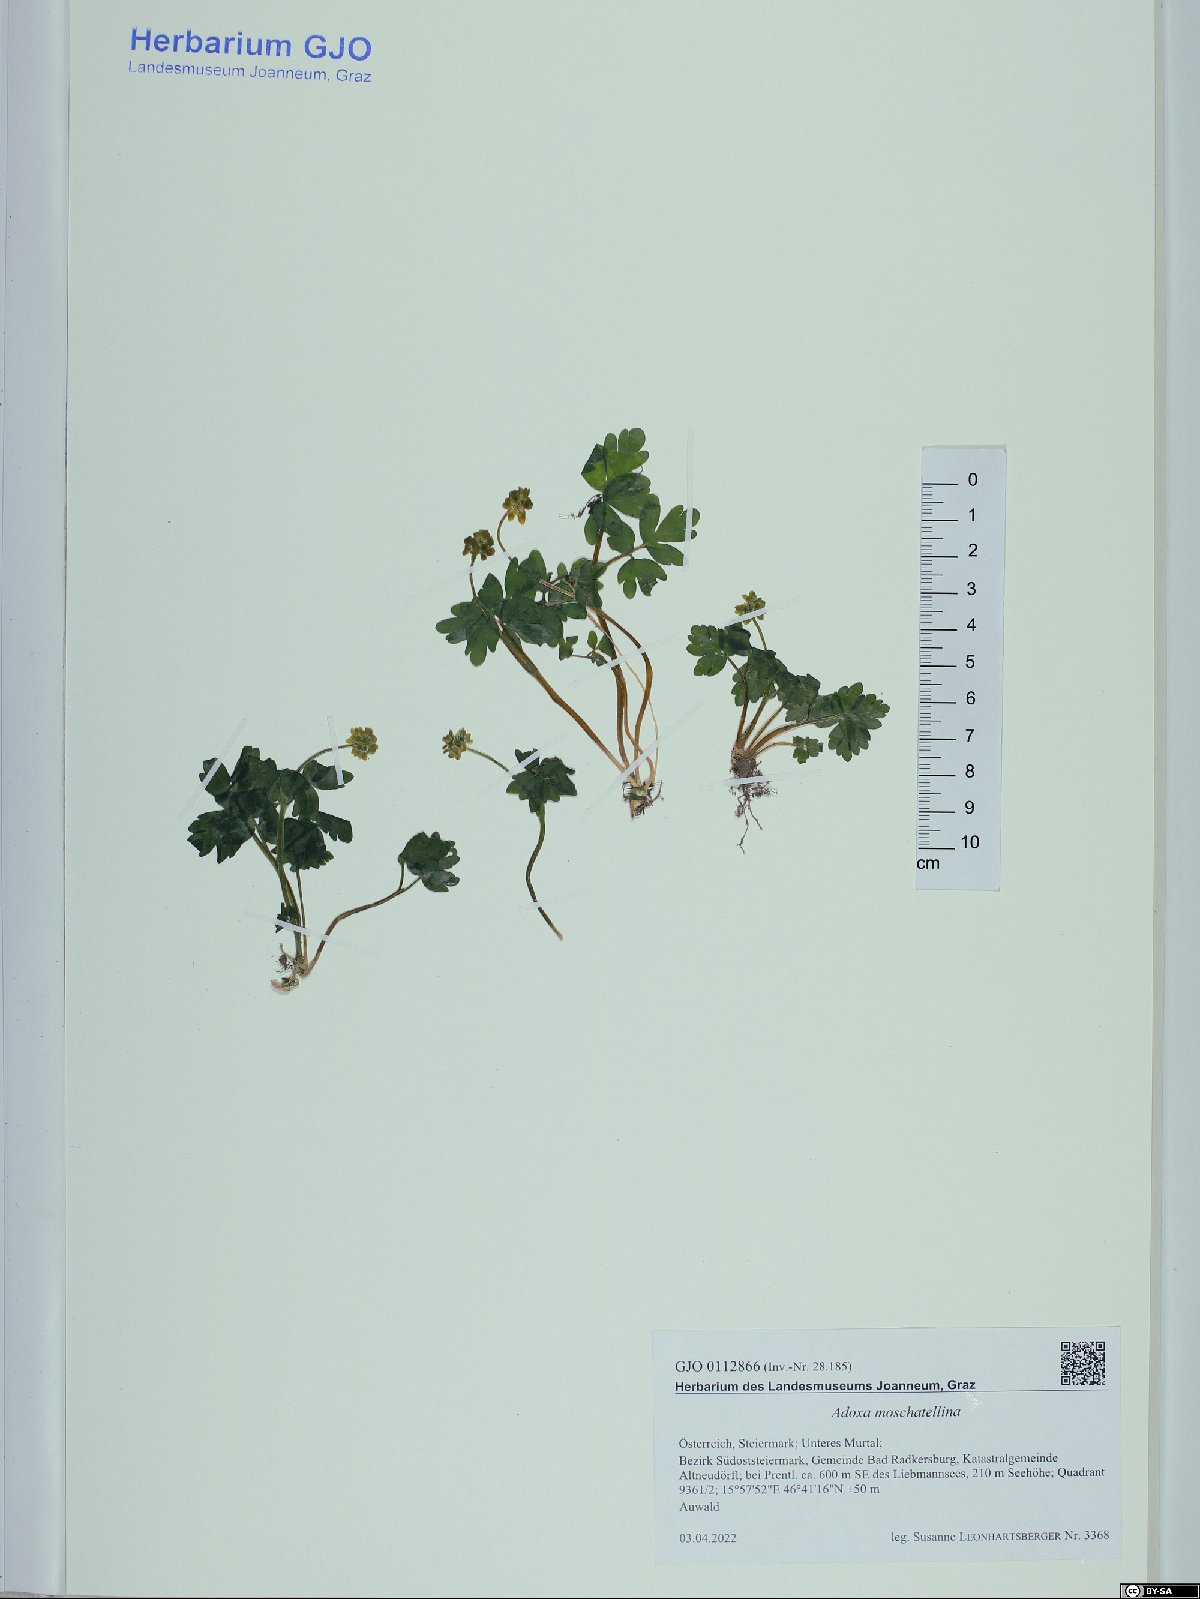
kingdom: Plantae
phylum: Tracheophyta
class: Magnoliopsida
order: Dipsacales
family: Viburnaceae
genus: Adoxa
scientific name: Adoxa moschatellina
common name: Moschatel
